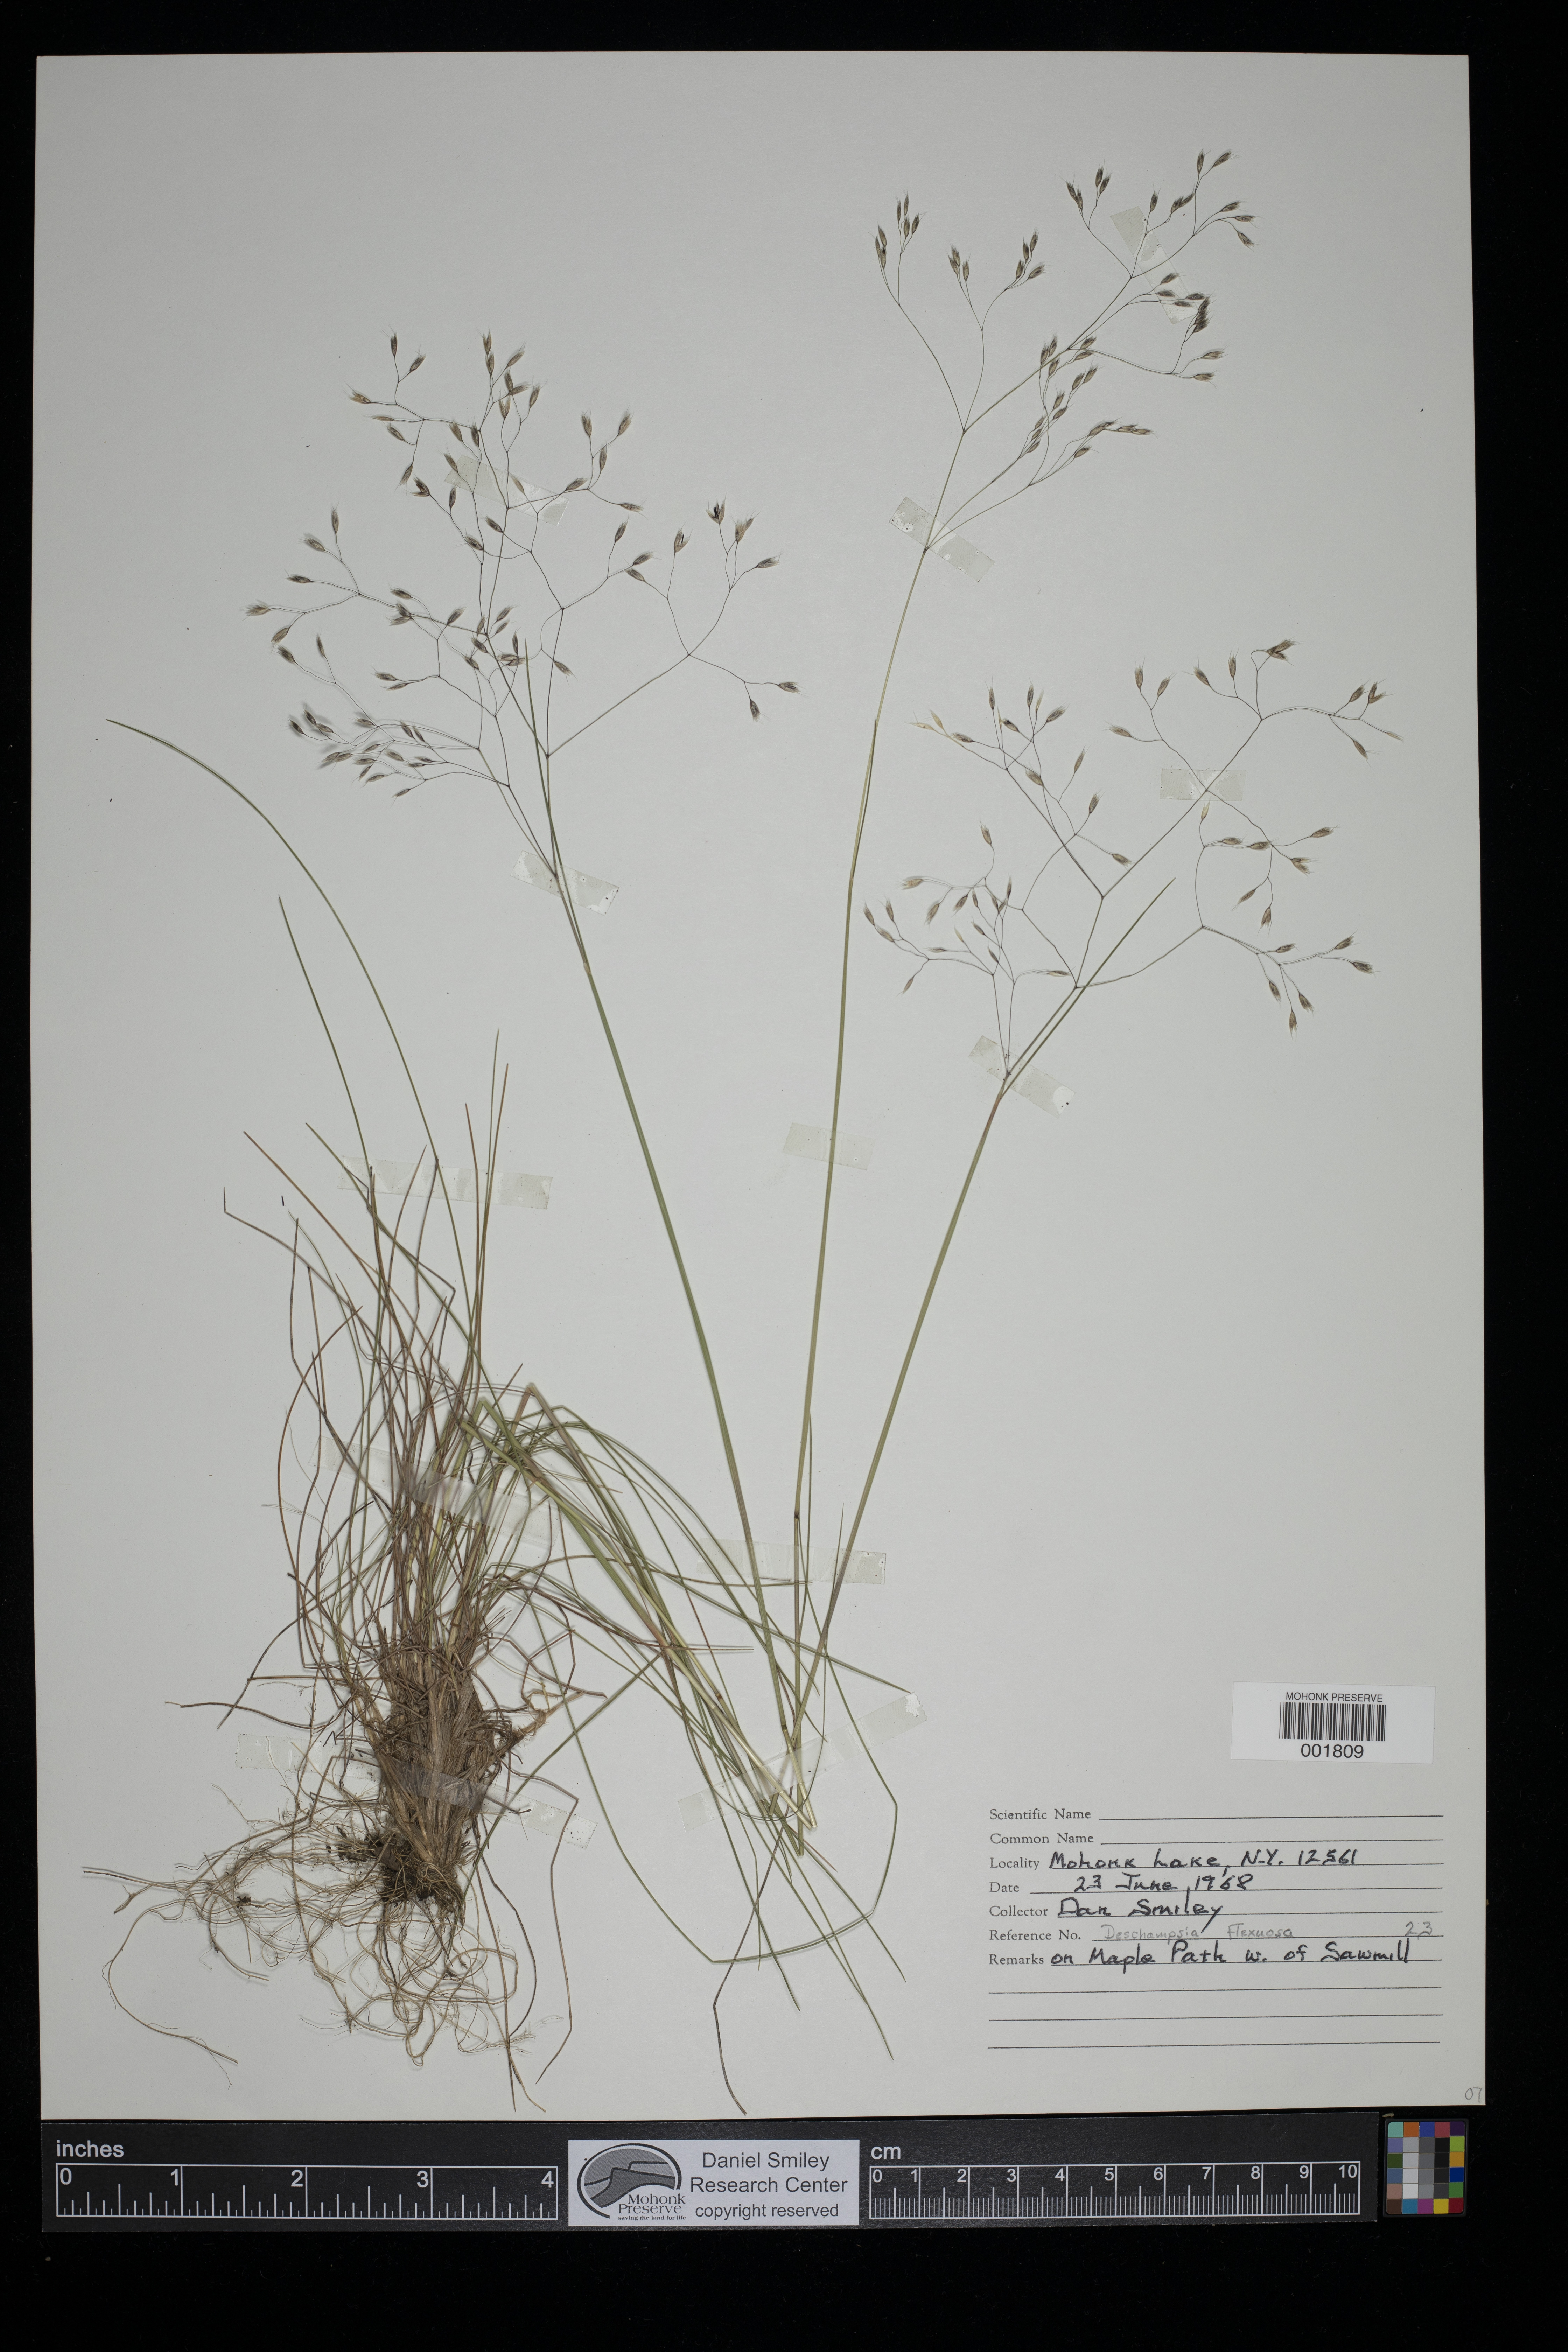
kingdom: Plantae
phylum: Tracheophyta
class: Liliopsida
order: Poales
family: Poaceae
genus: Avenella
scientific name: Avenella flexuosa
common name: Wavy hairgrass
